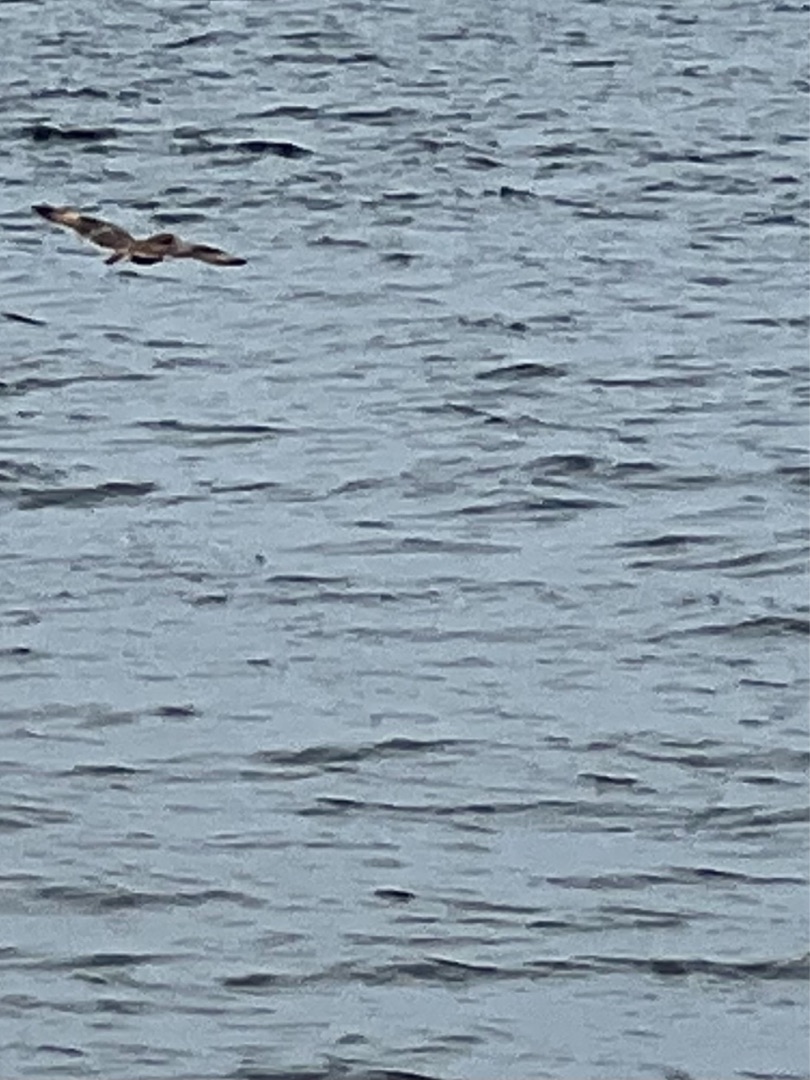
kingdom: Animalia
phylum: Chordata
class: Aves
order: Strigiformes
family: Strigidae
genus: Asio
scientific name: Asio flammeus
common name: Mosehornugle
